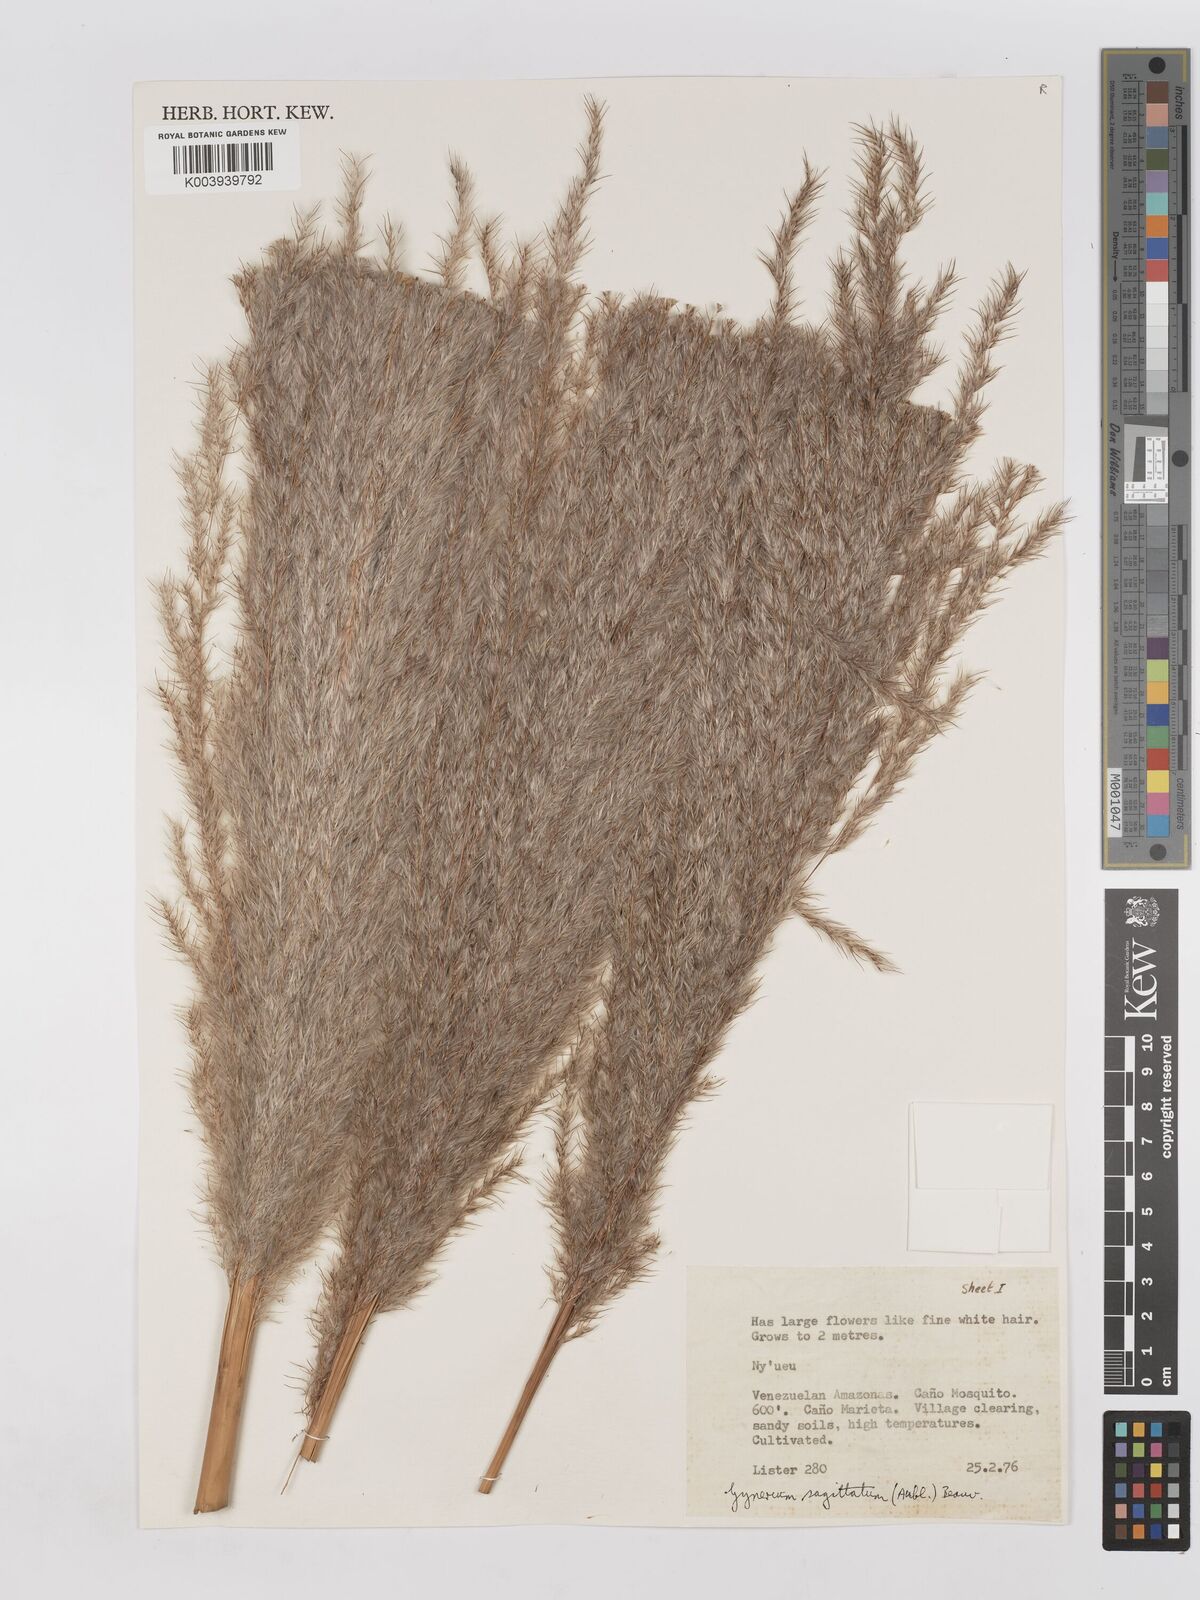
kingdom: Plantae
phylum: Tracheophyta
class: Liliopsida
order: Poales
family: Poaceae
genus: Gynerium
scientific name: Gynerium sagittatum
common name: Wild cane
